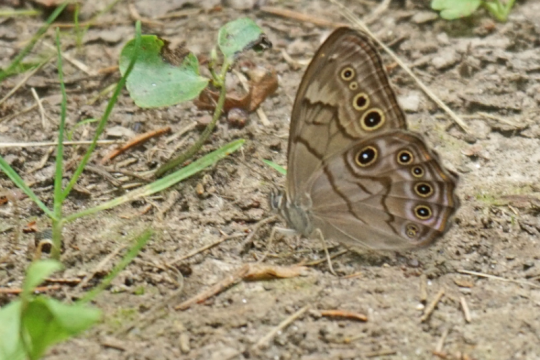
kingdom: Animalia
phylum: Arthropoda
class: Insecta
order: Lepidoptera
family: Nymphalidae
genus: Lethe
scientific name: Lethe anthedon
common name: Northern Pearly-Eye
